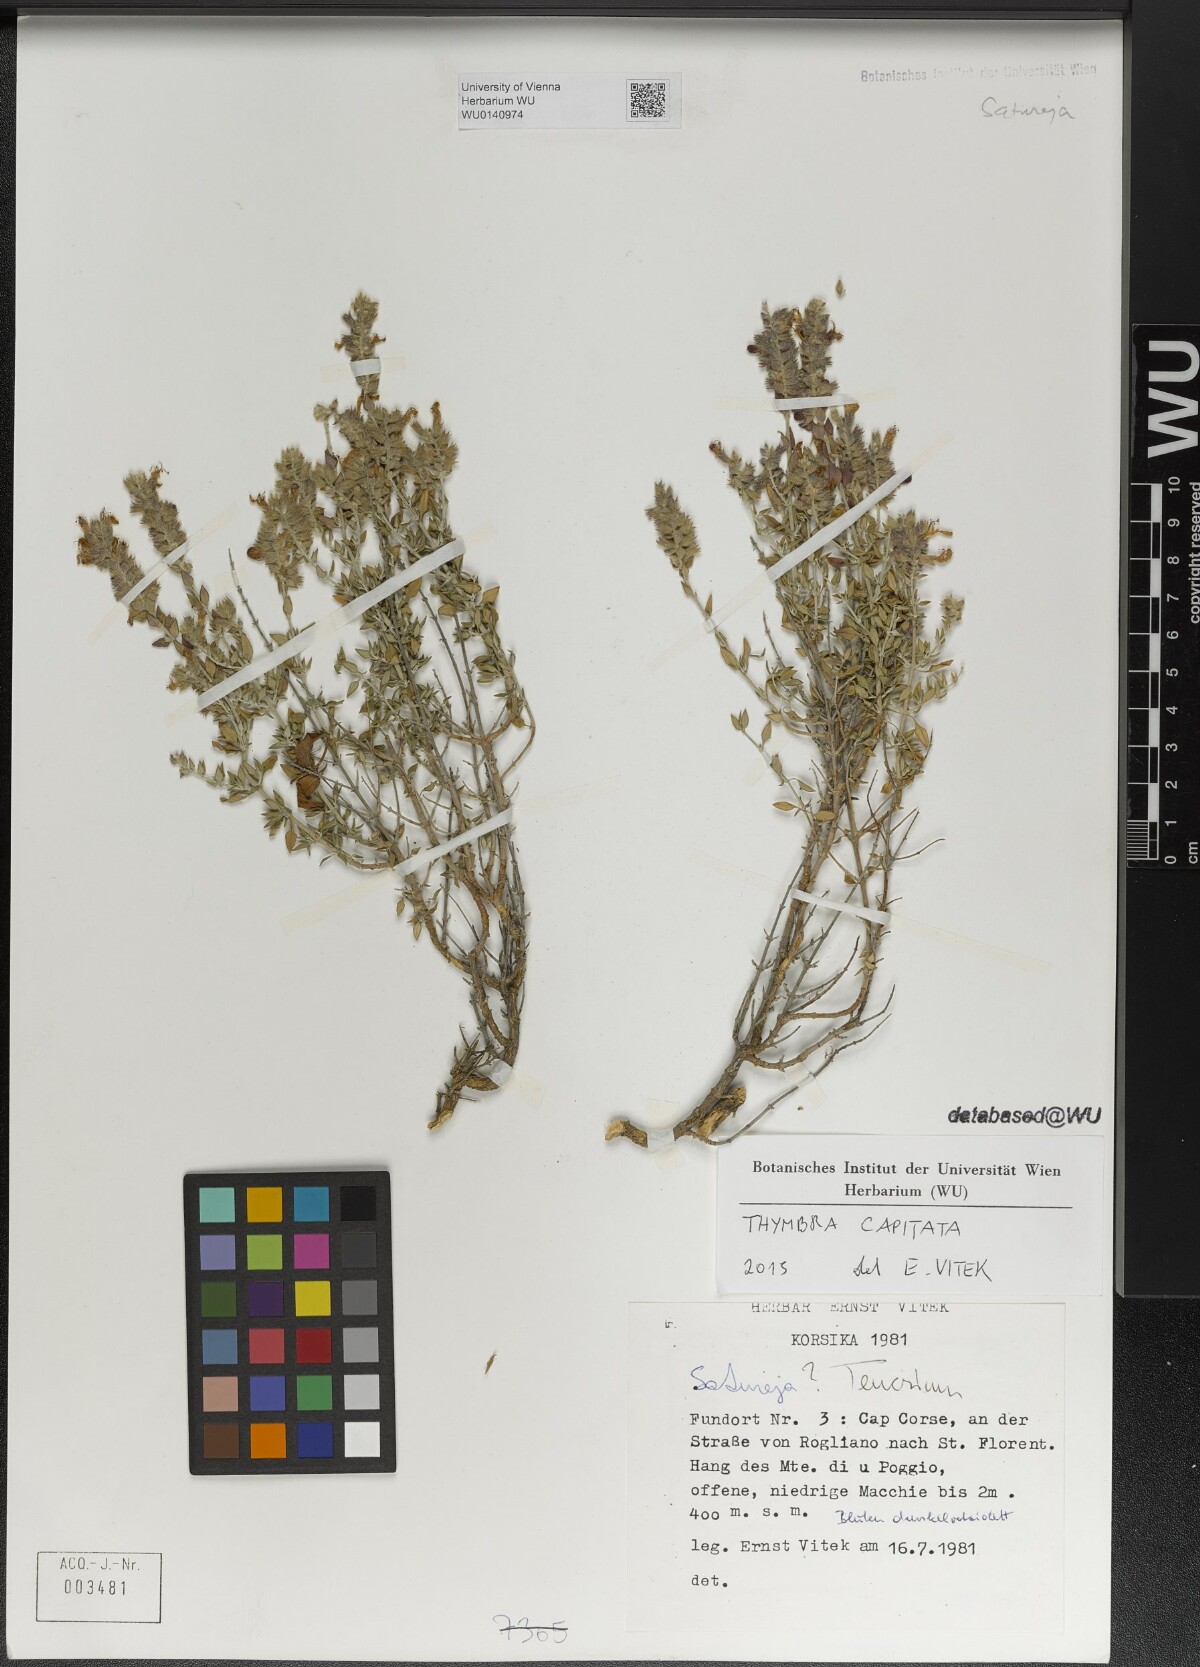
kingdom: Plantae
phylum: Tracheophyta
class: Magnoliopsida
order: Lamiales
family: Lamiaceae
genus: Thymbra
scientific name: Thymbra capitata
